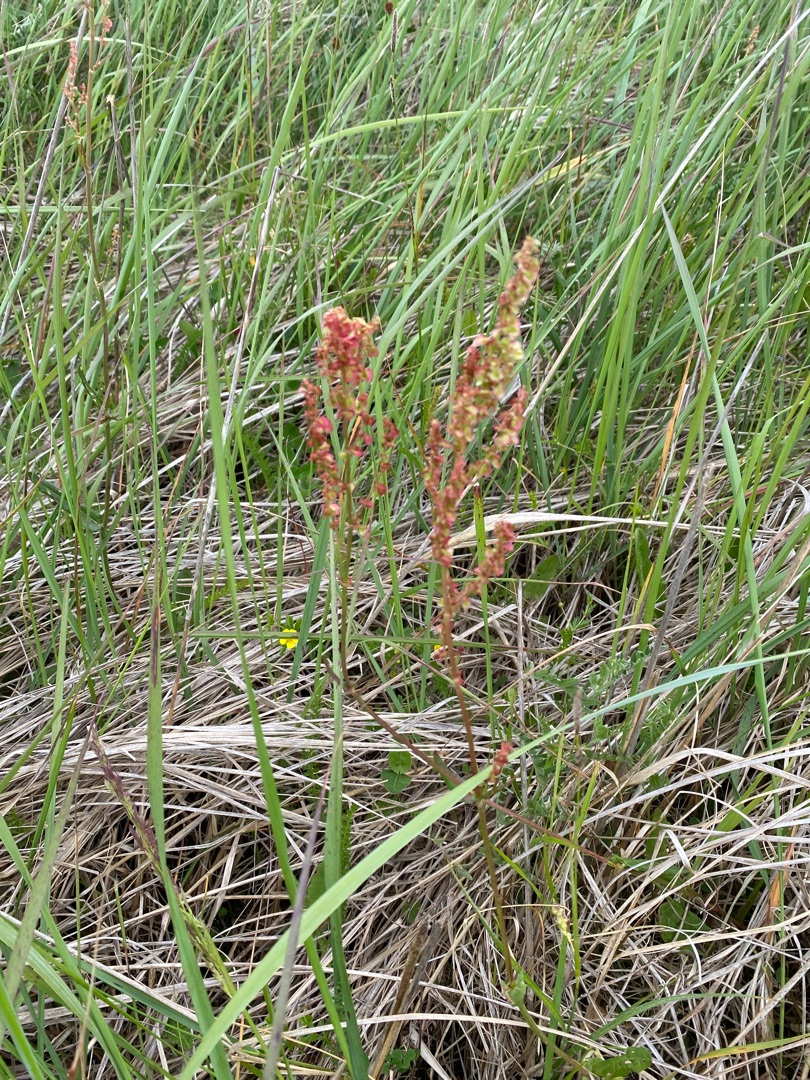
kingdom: Plantae
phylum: Tracheophyta
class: Magnoliopsida
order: Caryophyllales
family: Polygonaceae
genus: Rumex
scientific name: Rumex acetosa
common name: Almindelig syre
